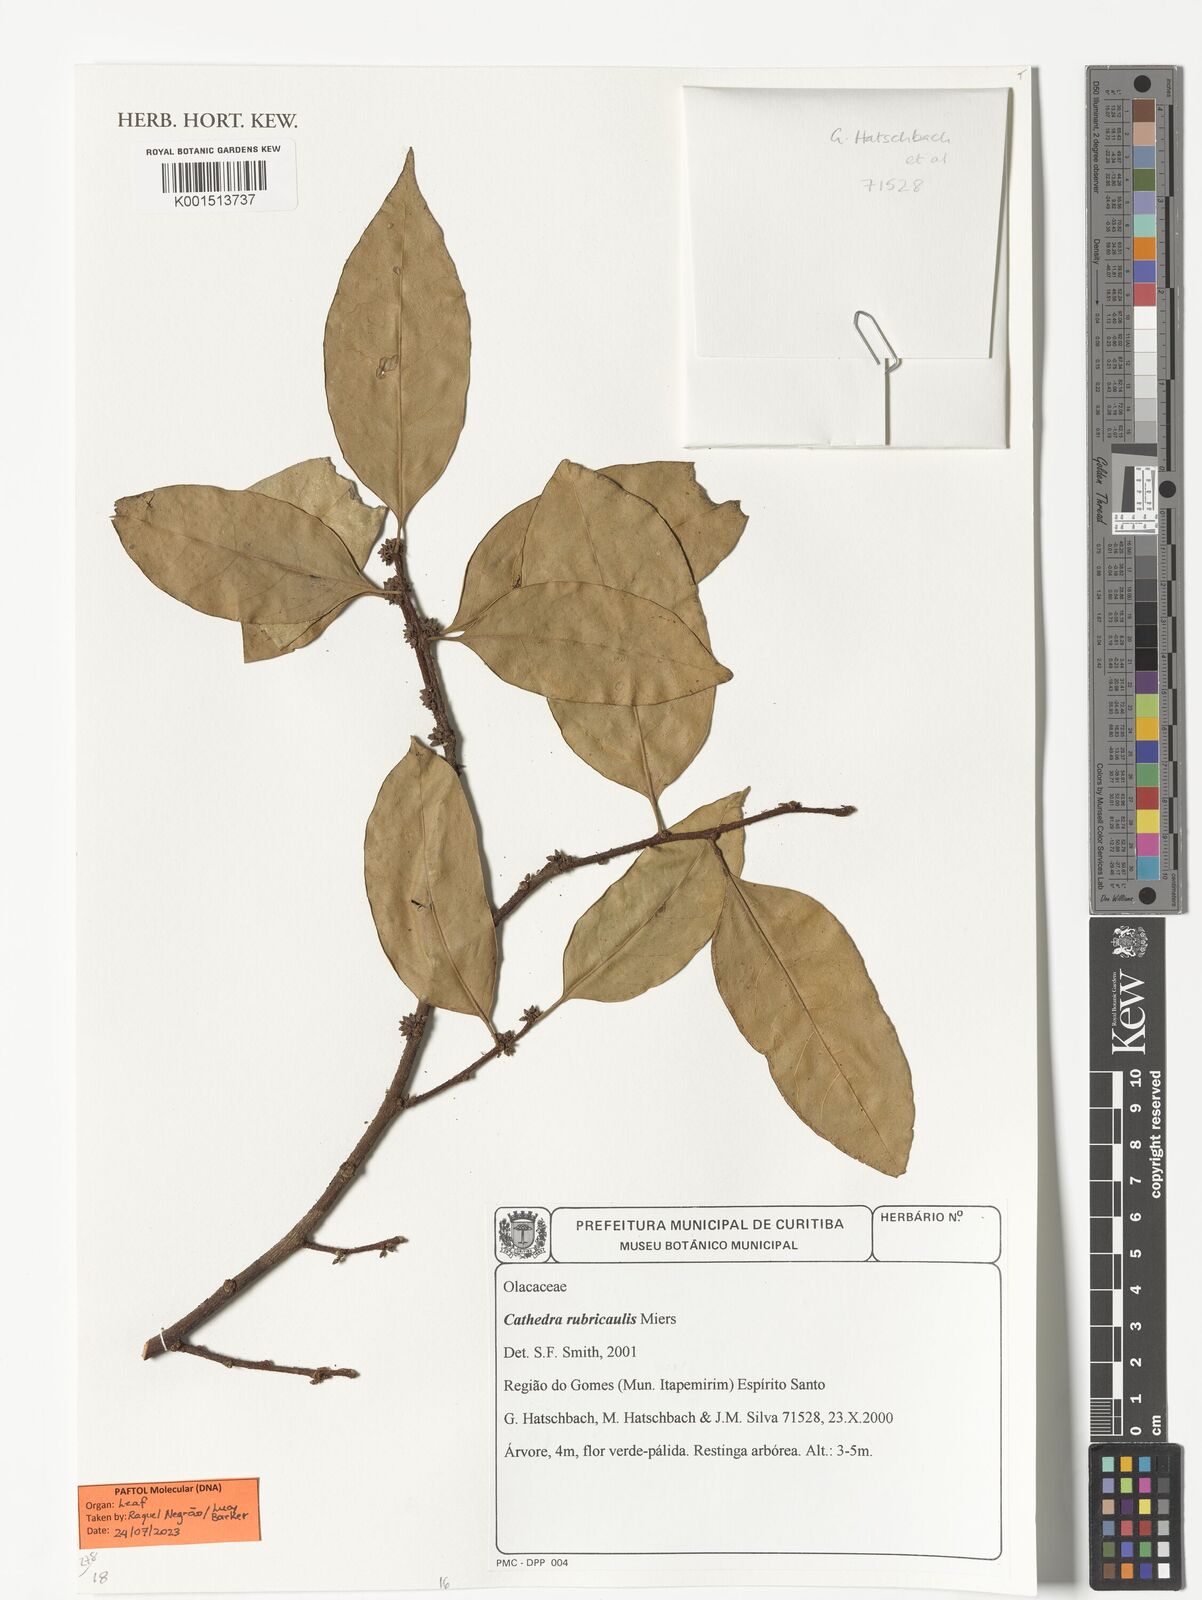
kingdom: Plantae
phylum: Tracheophyta
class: Magnoliopsida
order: Santalales
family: Aptandraceae
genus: Cathedra
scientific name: Cathedra rubricaulis
